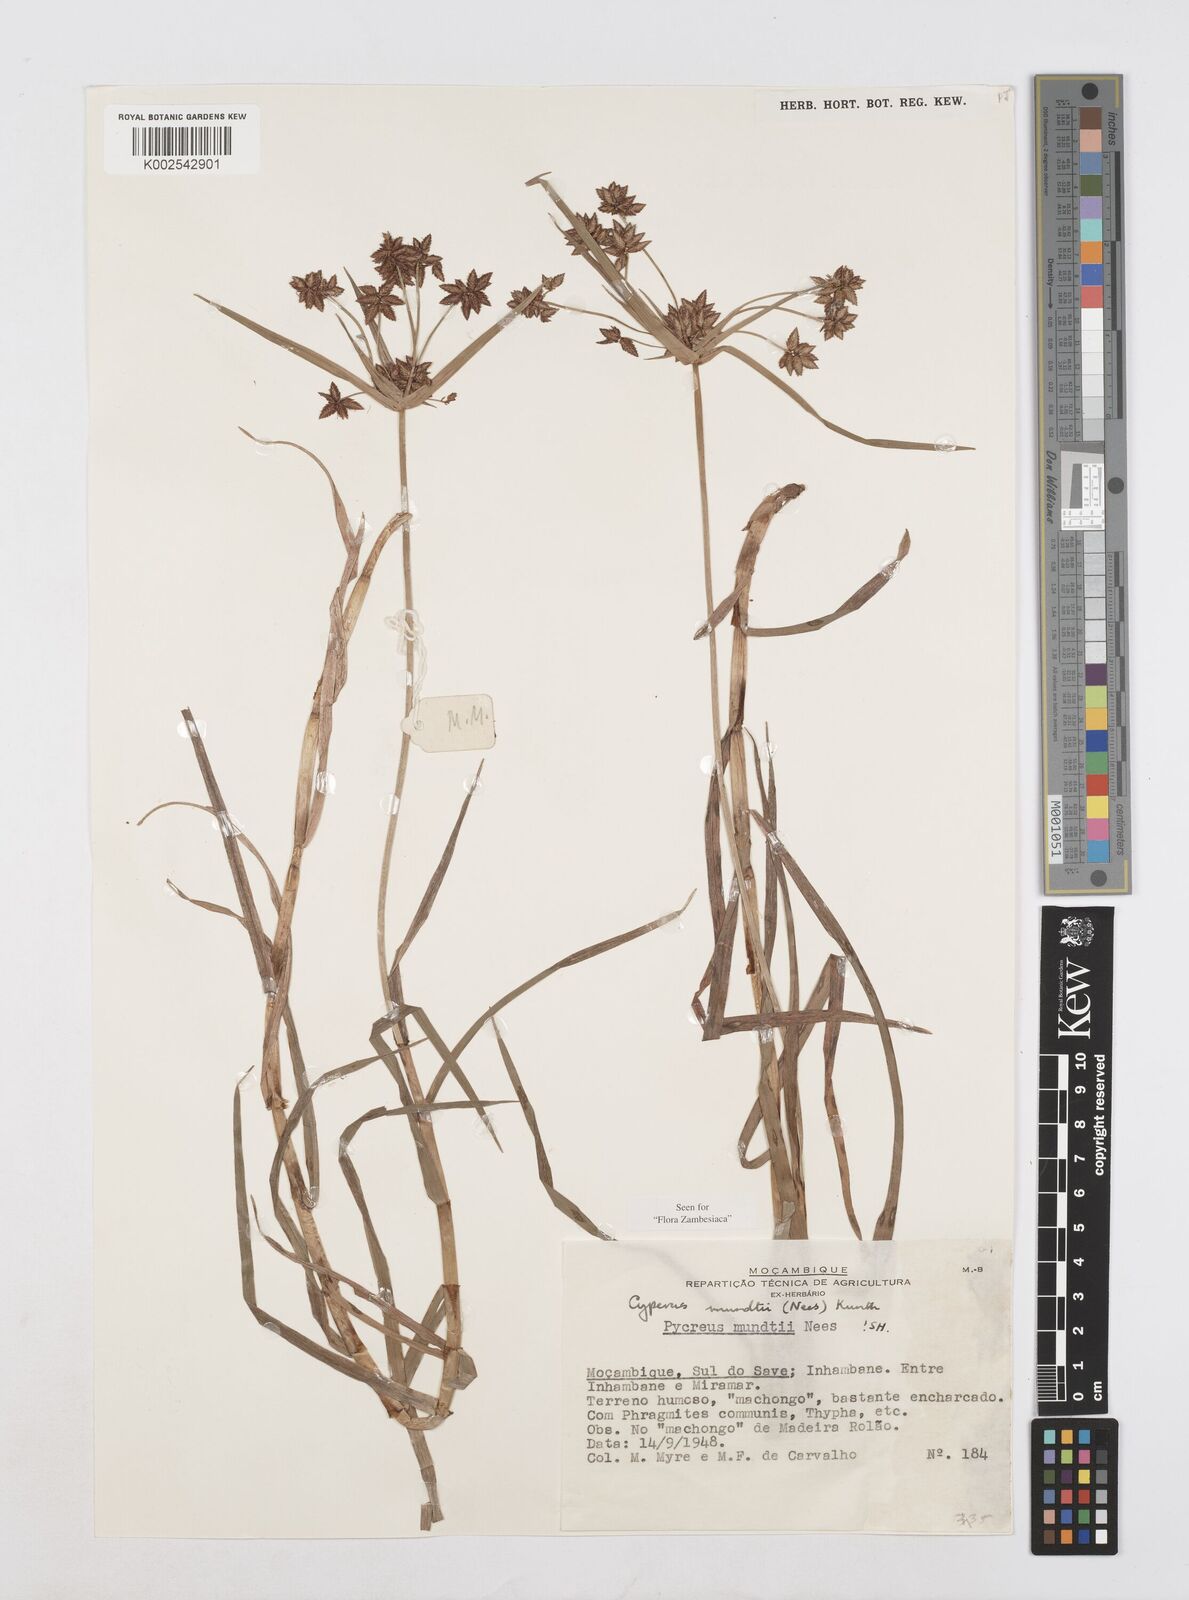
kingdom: Plantae
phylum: Tracheophyta
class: Liliopsida
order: Poales
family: Cyperaceae
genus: Cyperus
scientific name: Cyperus mundii
